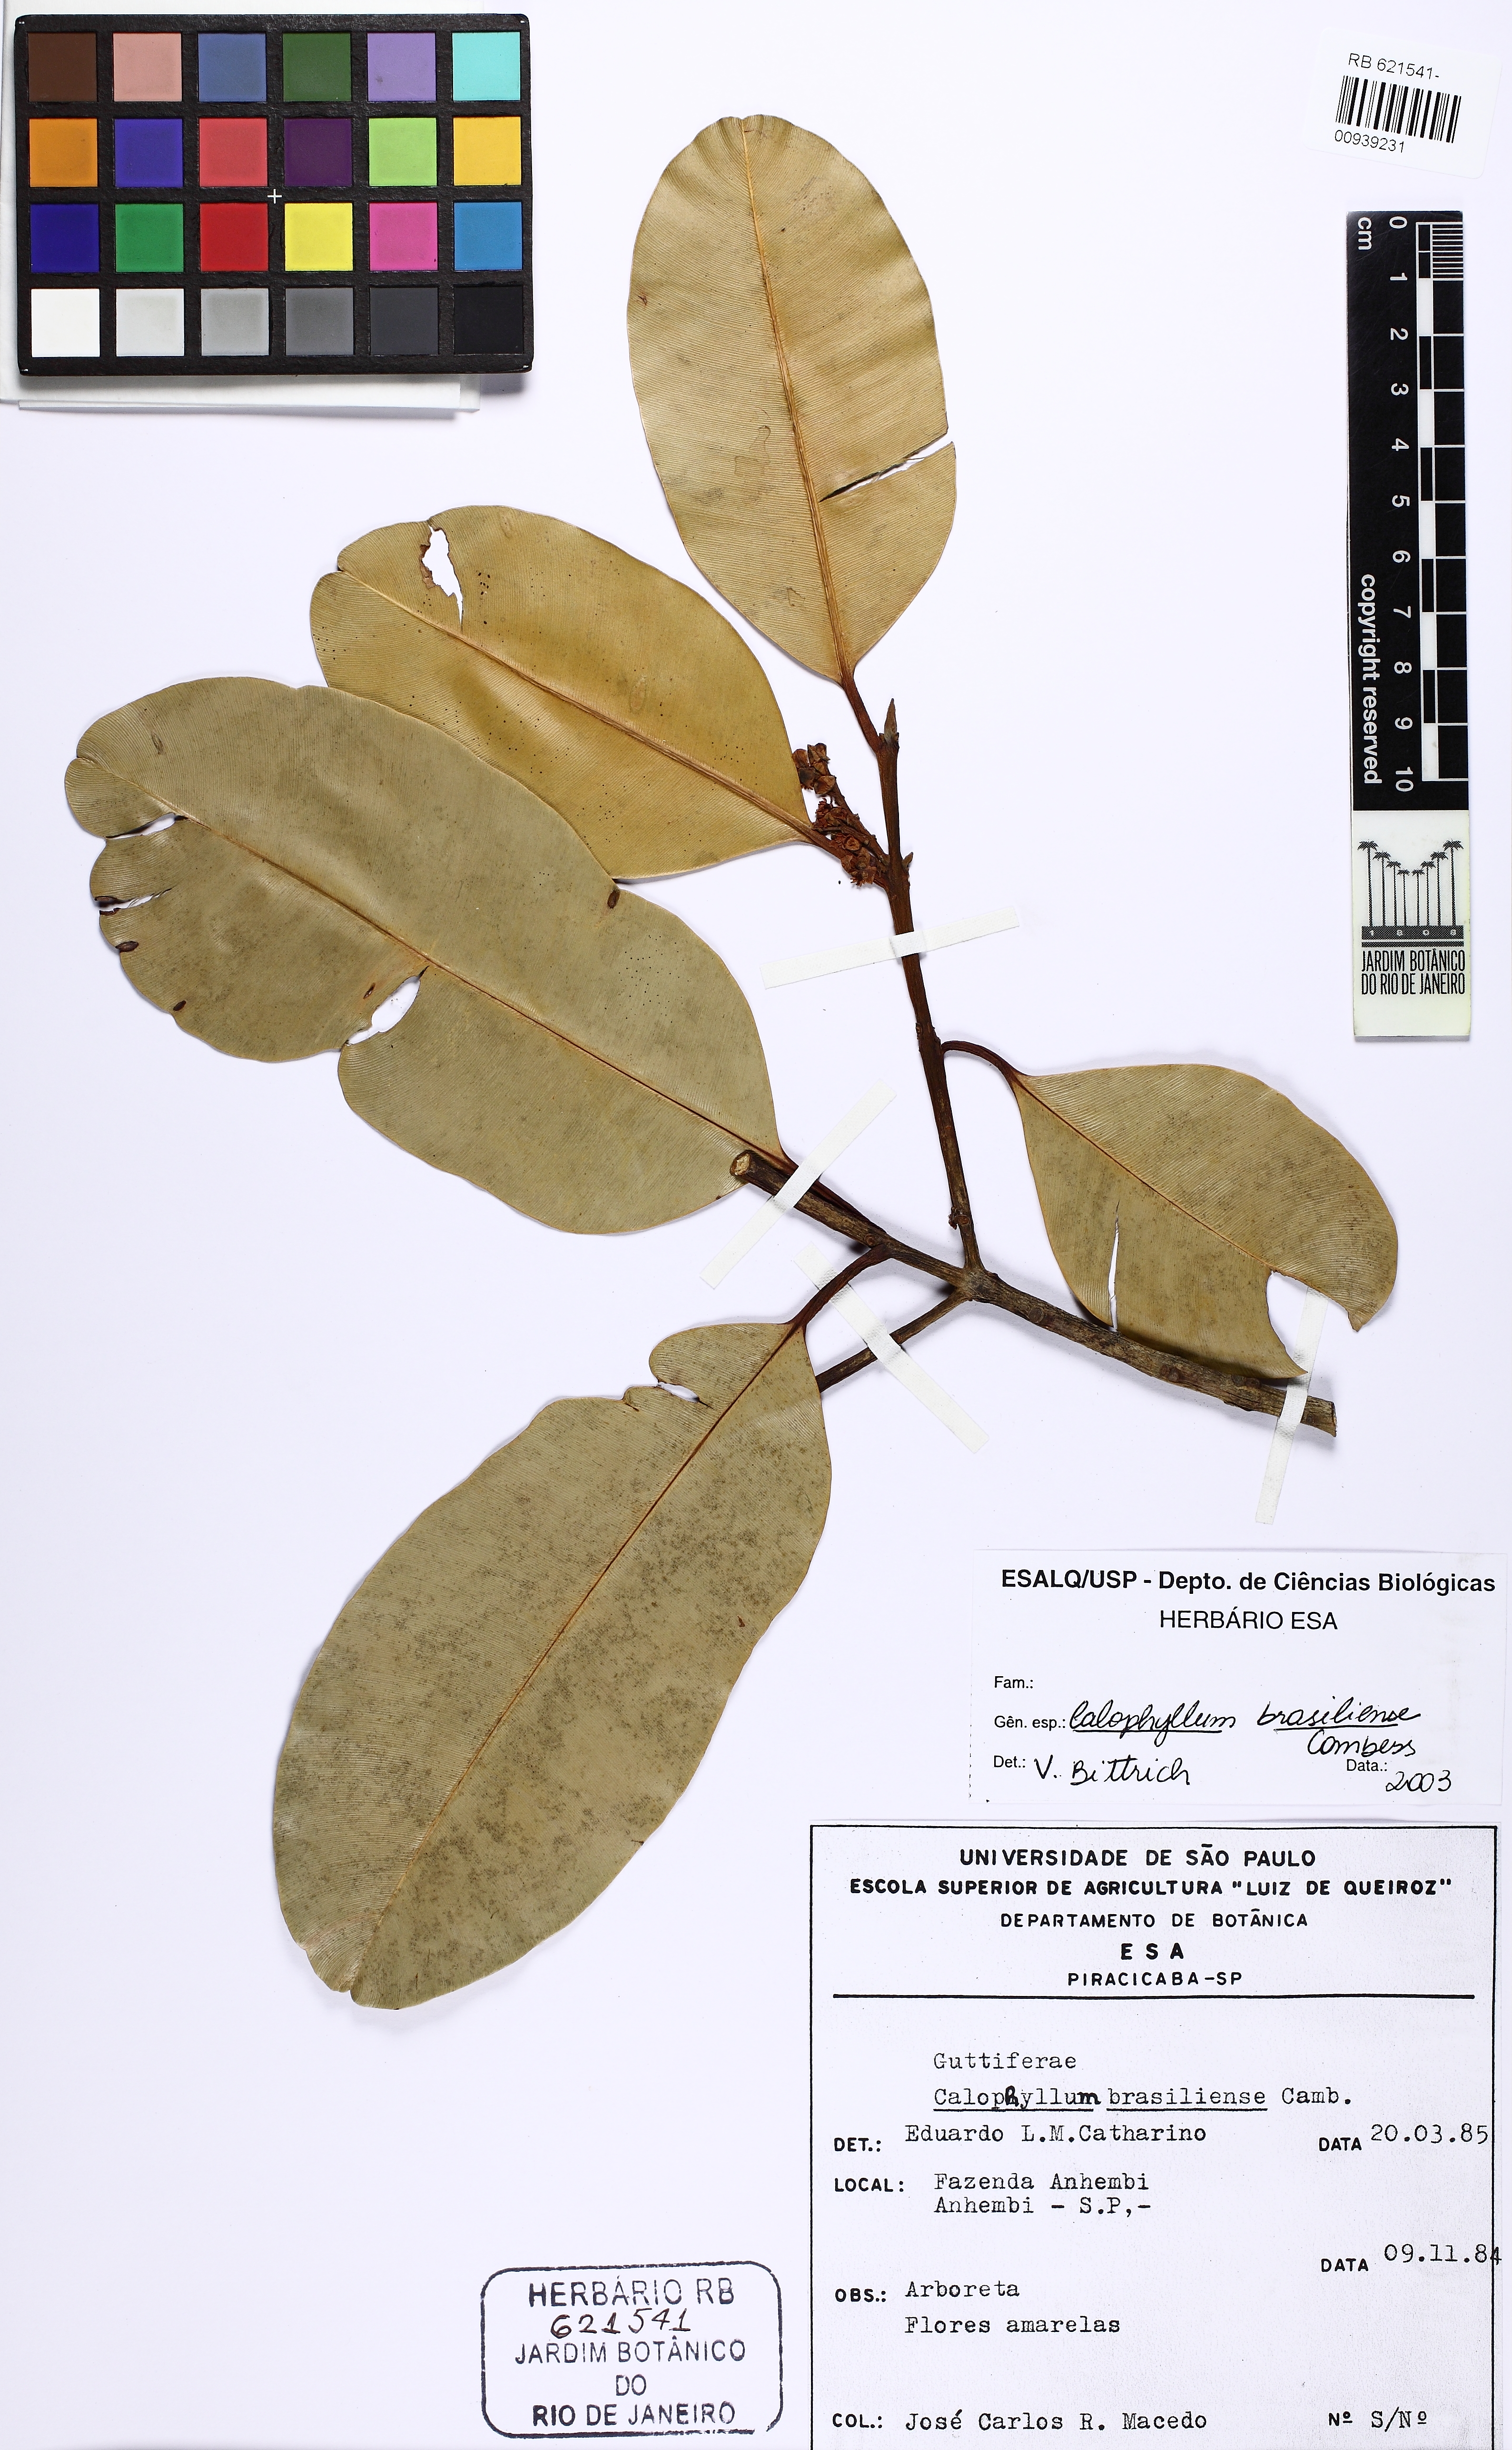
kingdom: Plantae
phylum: Tracheophyta
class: Magnoliopsida
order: Malpighiales
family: Calophyllaceae
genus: Calophyllum
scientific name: Calophyllum brasiliense
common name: Santa maria
